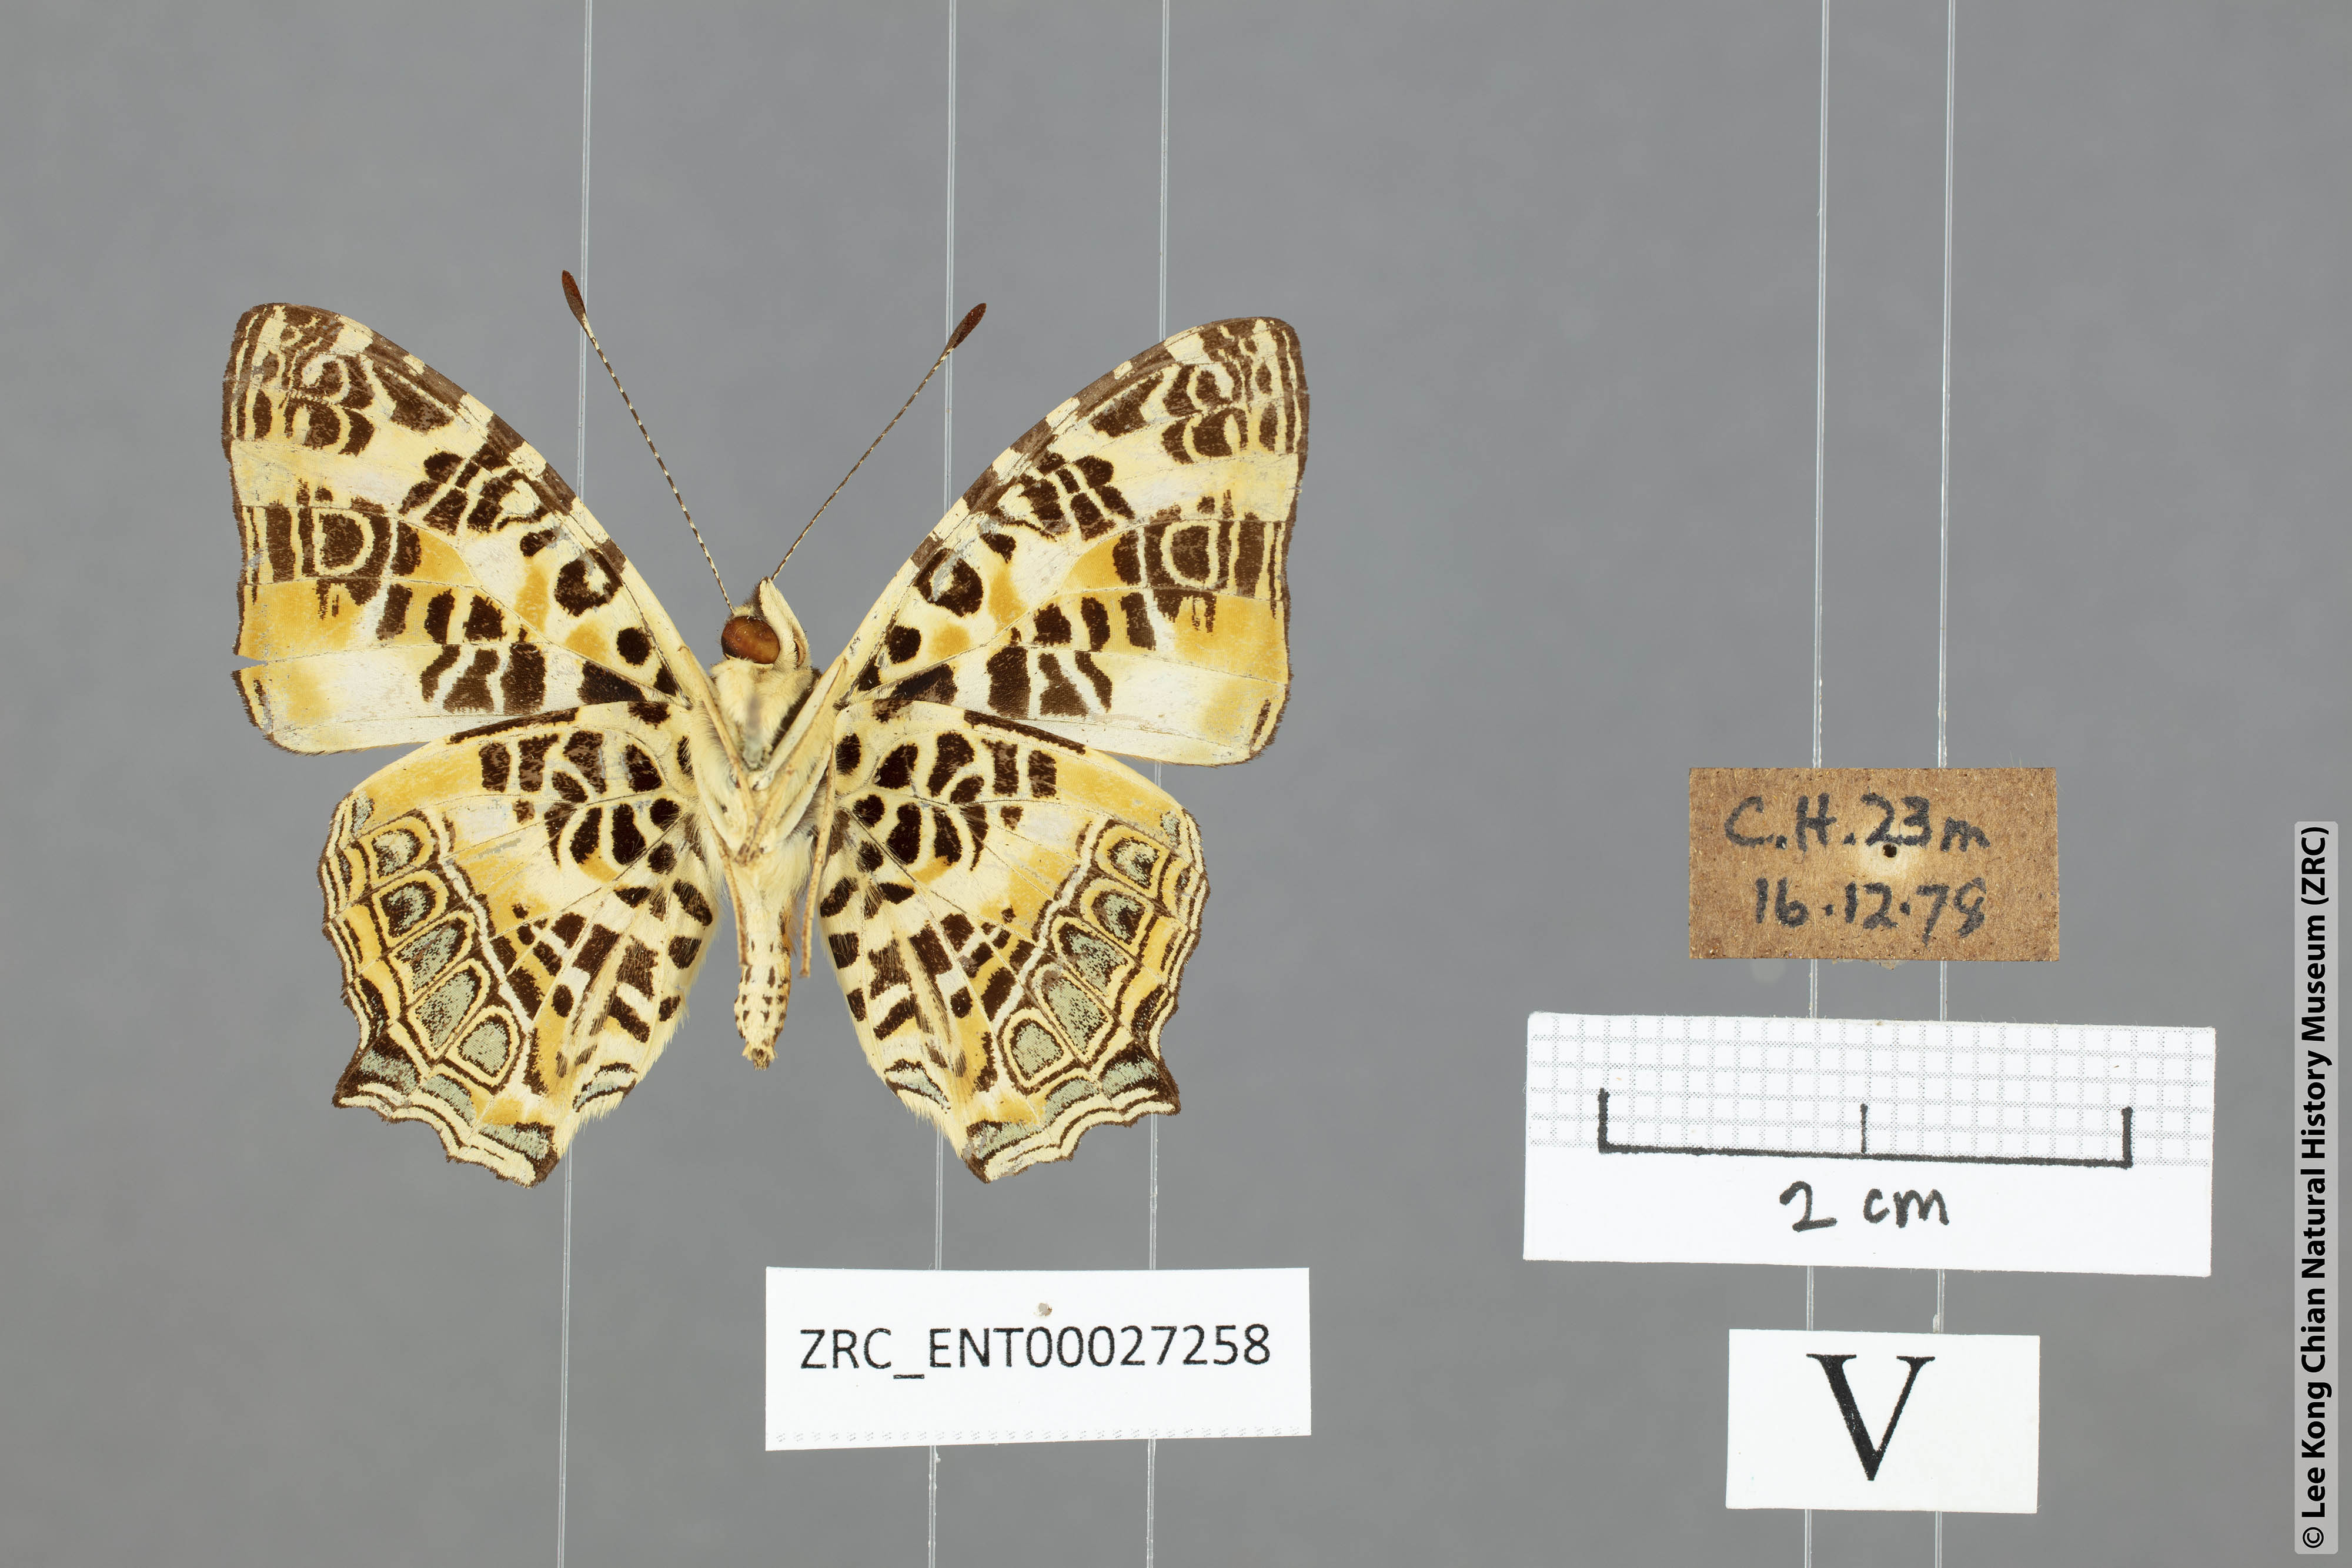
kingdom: Animalia
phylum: Arthropoda
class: Insecta
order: Lepidoptera
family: Nymphalidae
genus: Symbrenthia
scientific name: Symbrenthia hypselis
